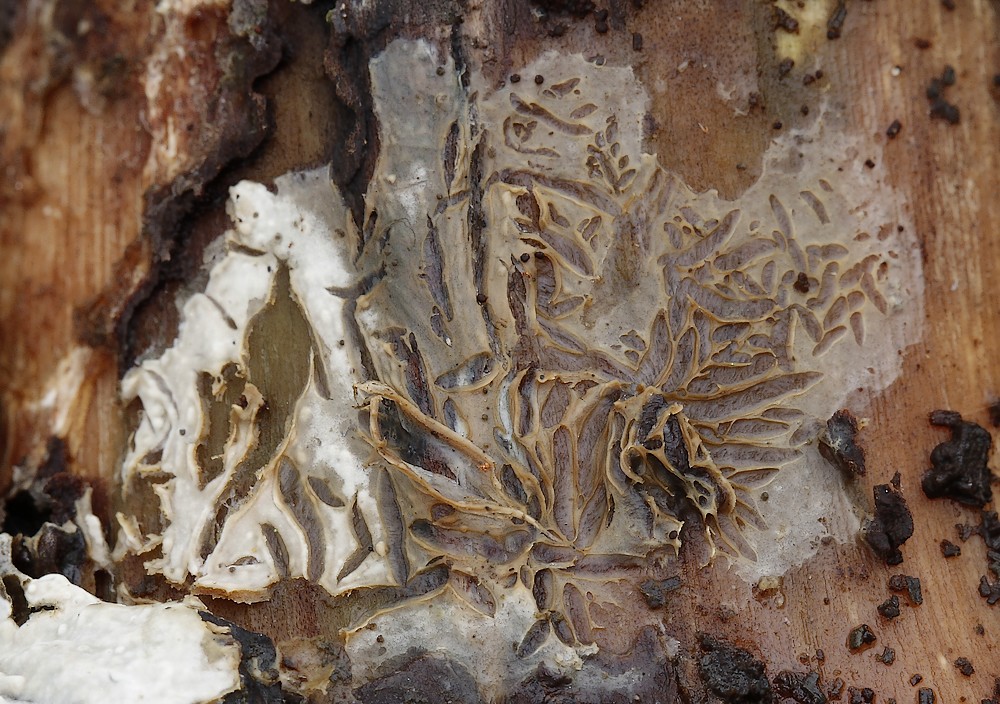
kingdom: Fungi
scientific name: Fungi
